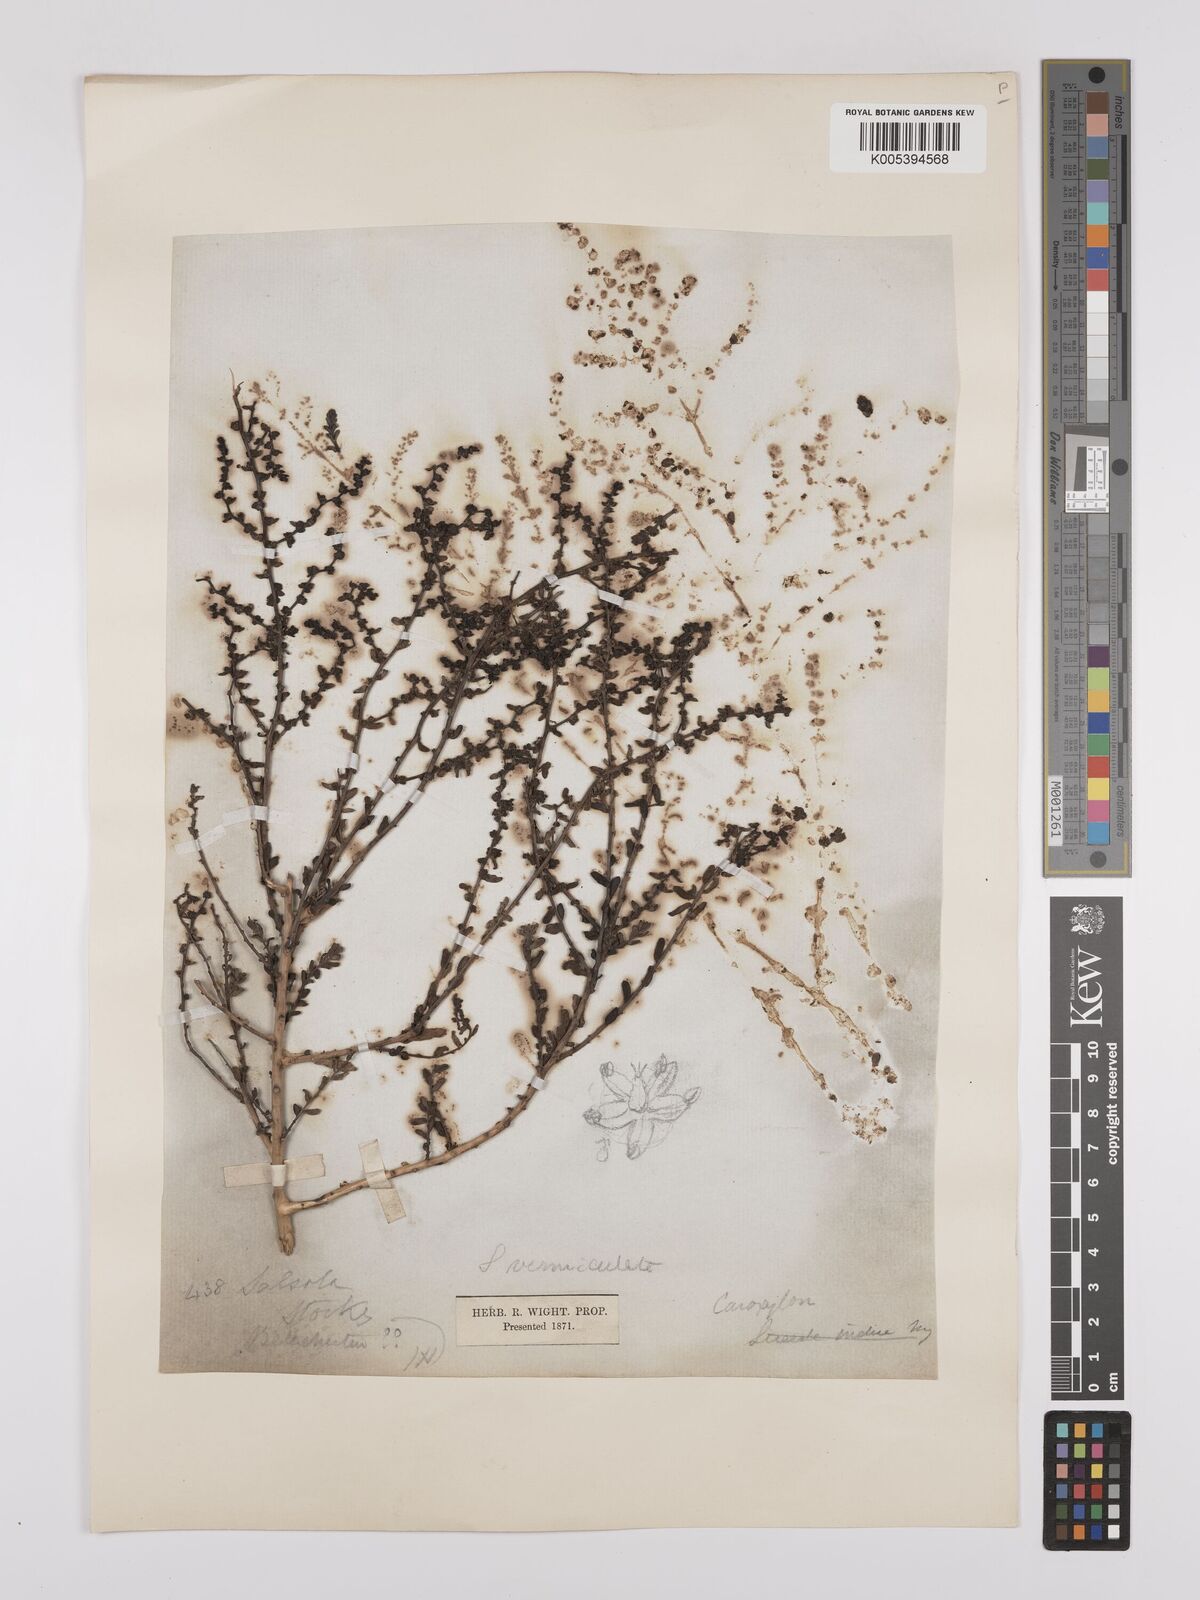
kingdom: Plantae
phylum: Tracheophyta
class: Magnoliopsida
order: Caryophyllales
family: Amaranthaceae
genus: Suaeda
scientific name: Suaeda
